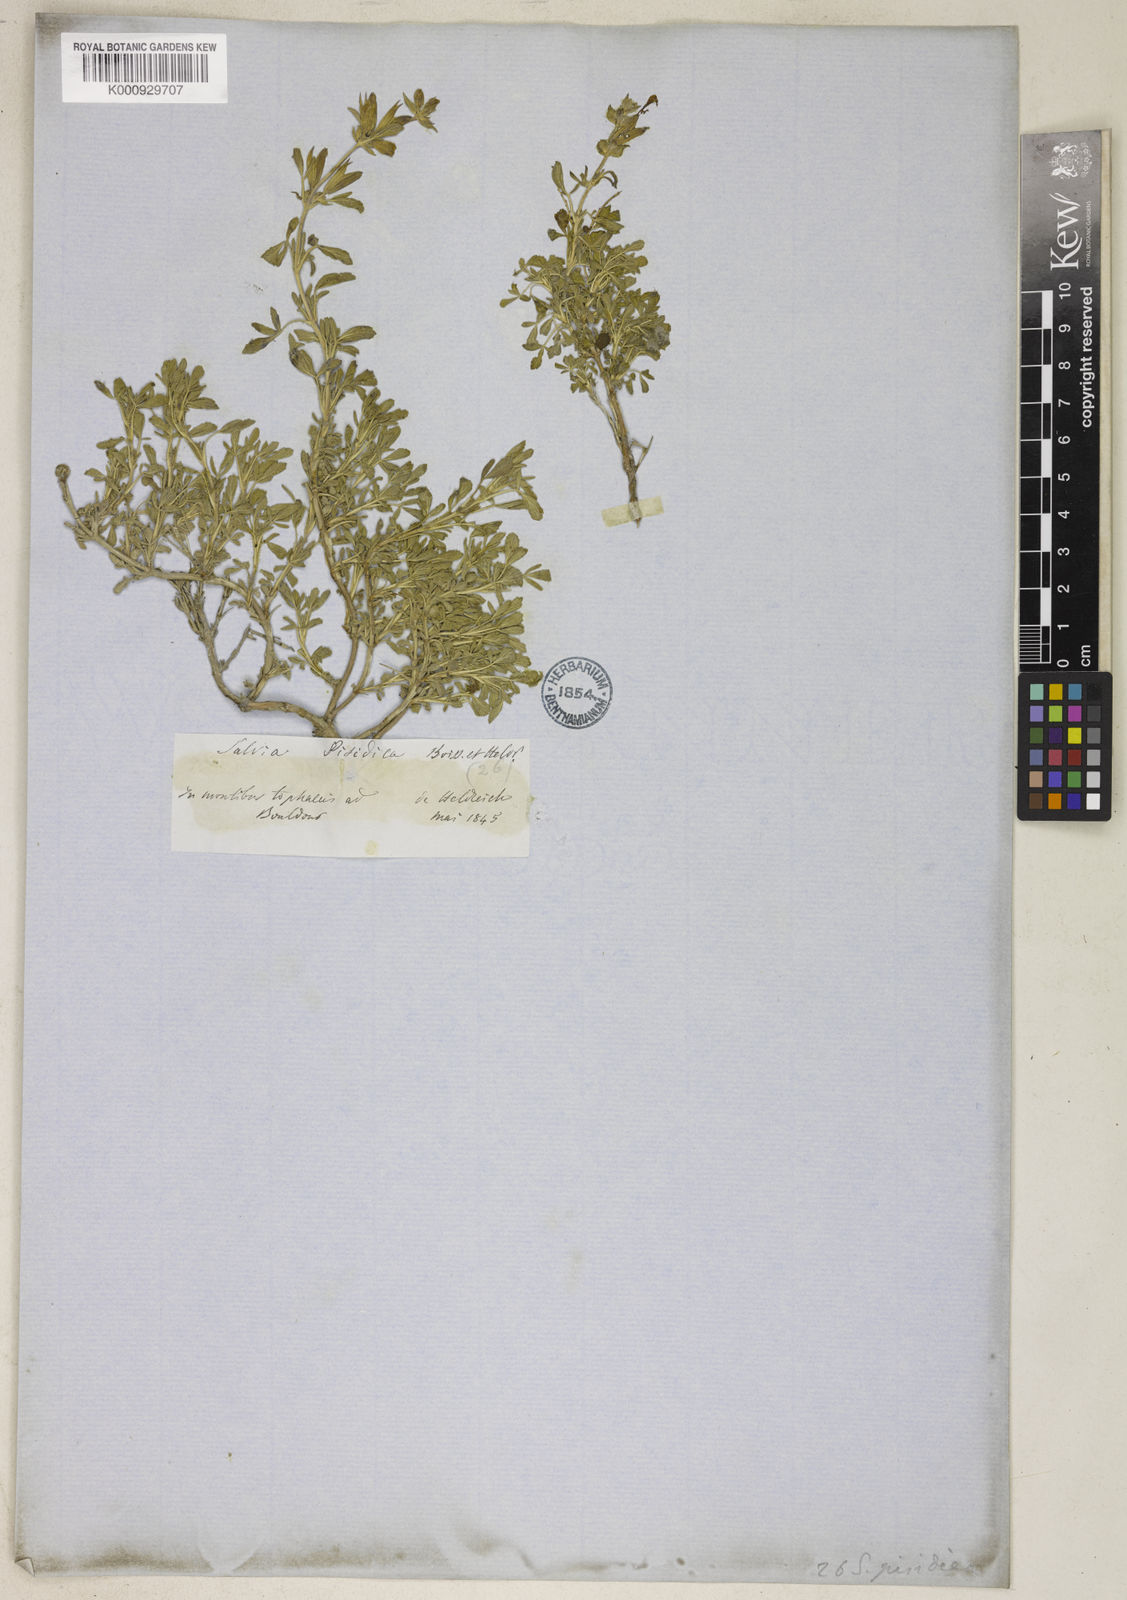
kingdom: Plantae
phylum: Tracheophyta
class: Magnoliopsida
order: Lamiales
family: Lamiaceae
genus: Salvia
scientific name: Salvia pisidica
